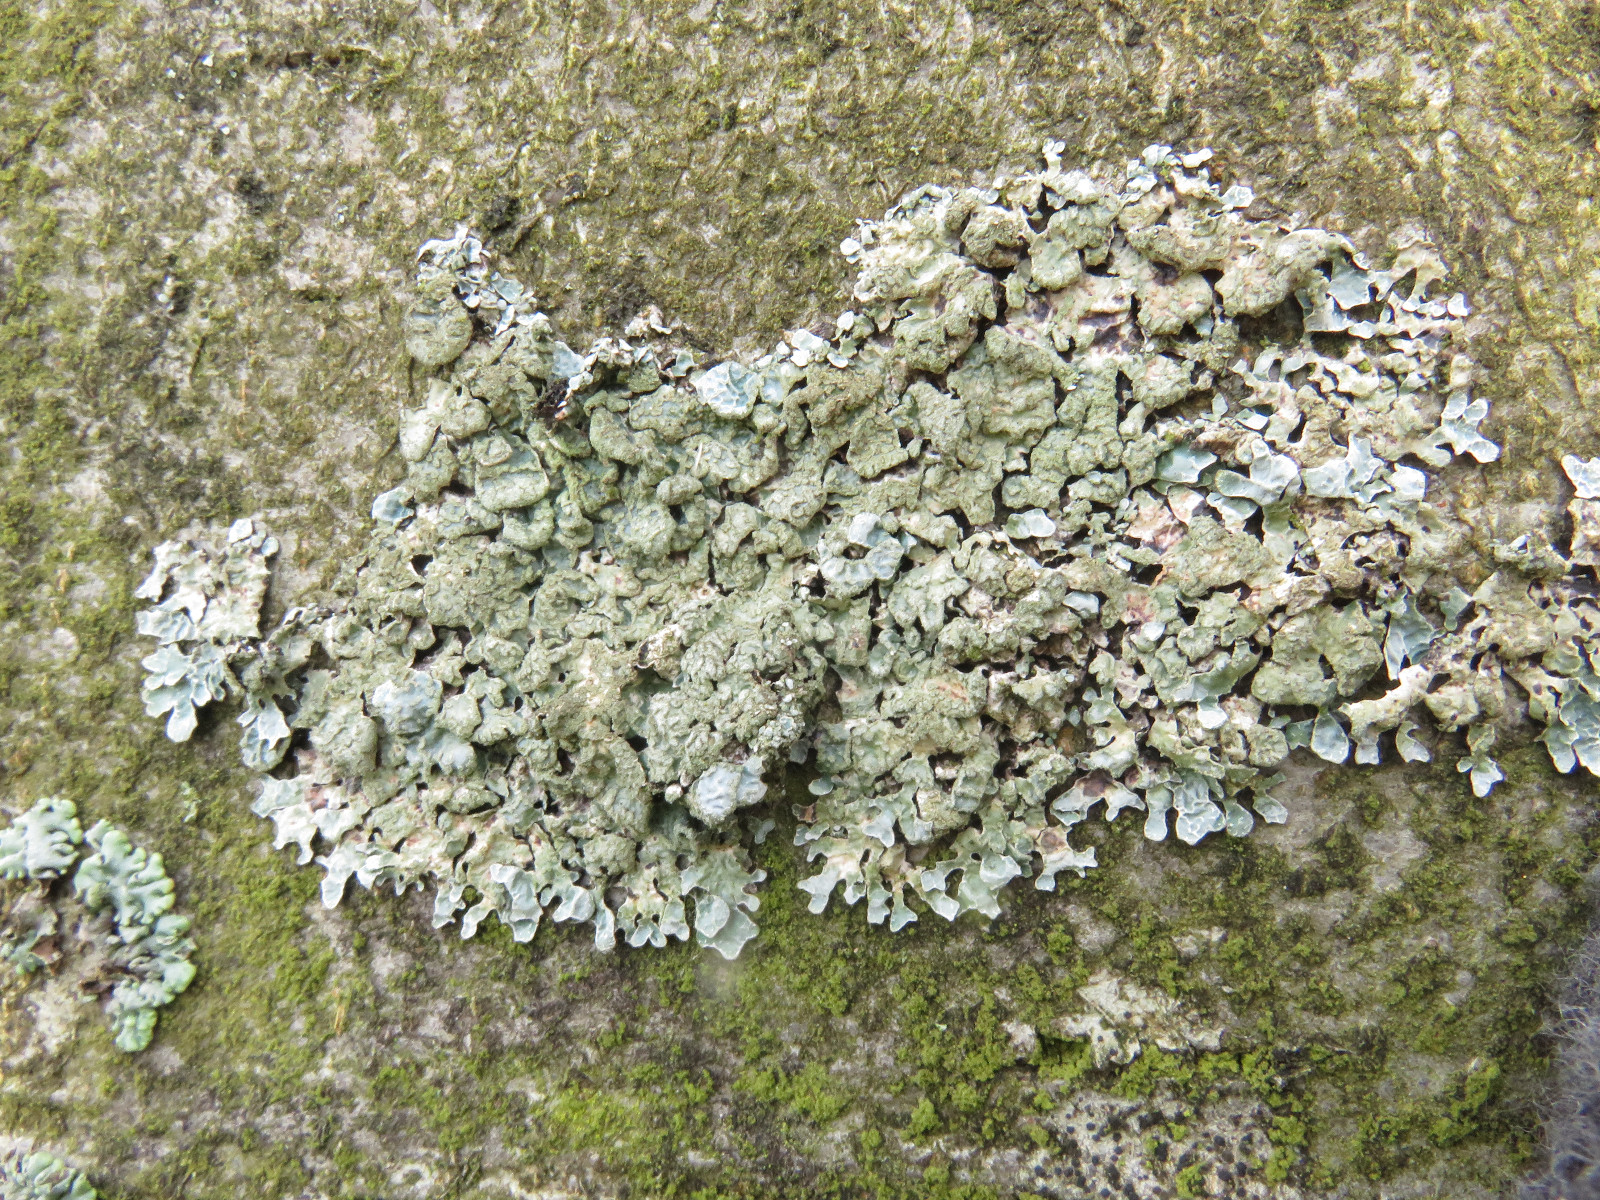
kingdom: Fungi
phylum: Ascomycota
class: Lecanoromycetes
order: Lecanorales
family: Parmeliaceae
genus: Parmelia
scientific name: Parmelia sulcata
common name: rynket skållav
